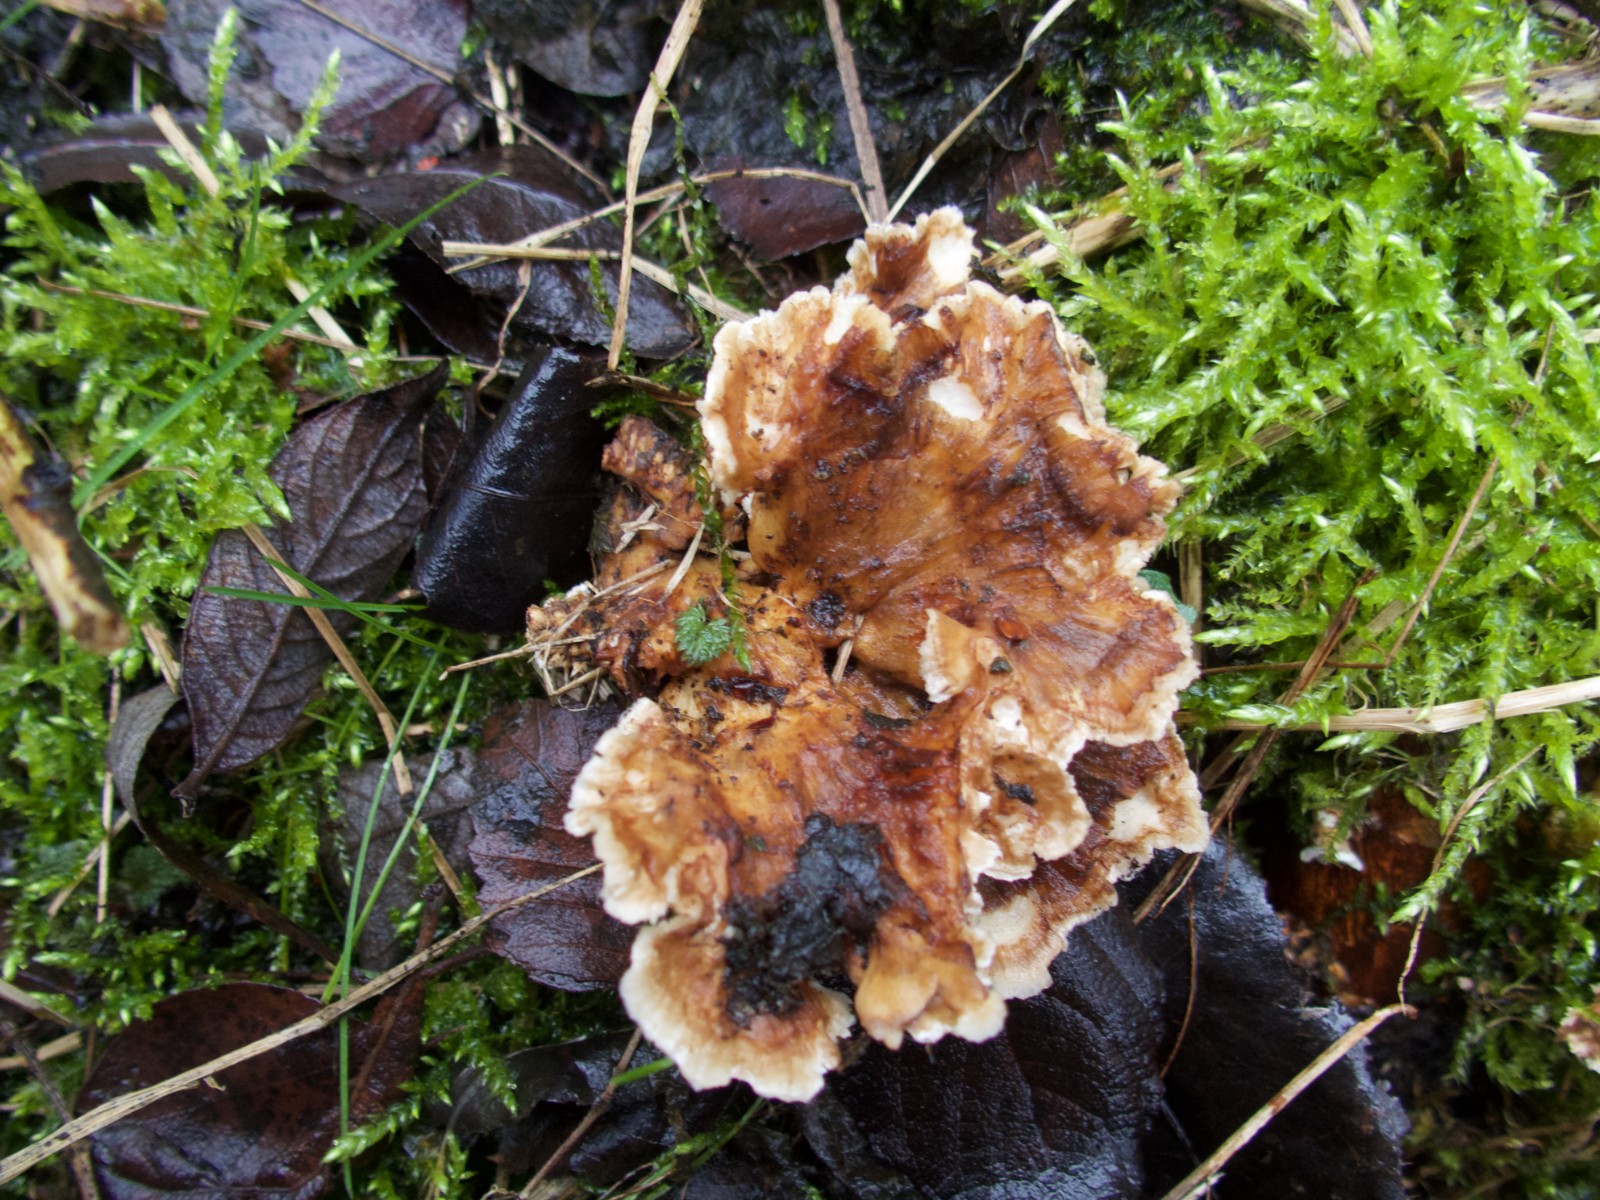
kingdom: Fungi
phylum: Basidiomycota
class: Agaricomycetes
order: Polyporales
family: Polyporaceae
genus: Trametes
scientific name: Trametes versicolor
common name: broget læderporesvamp
